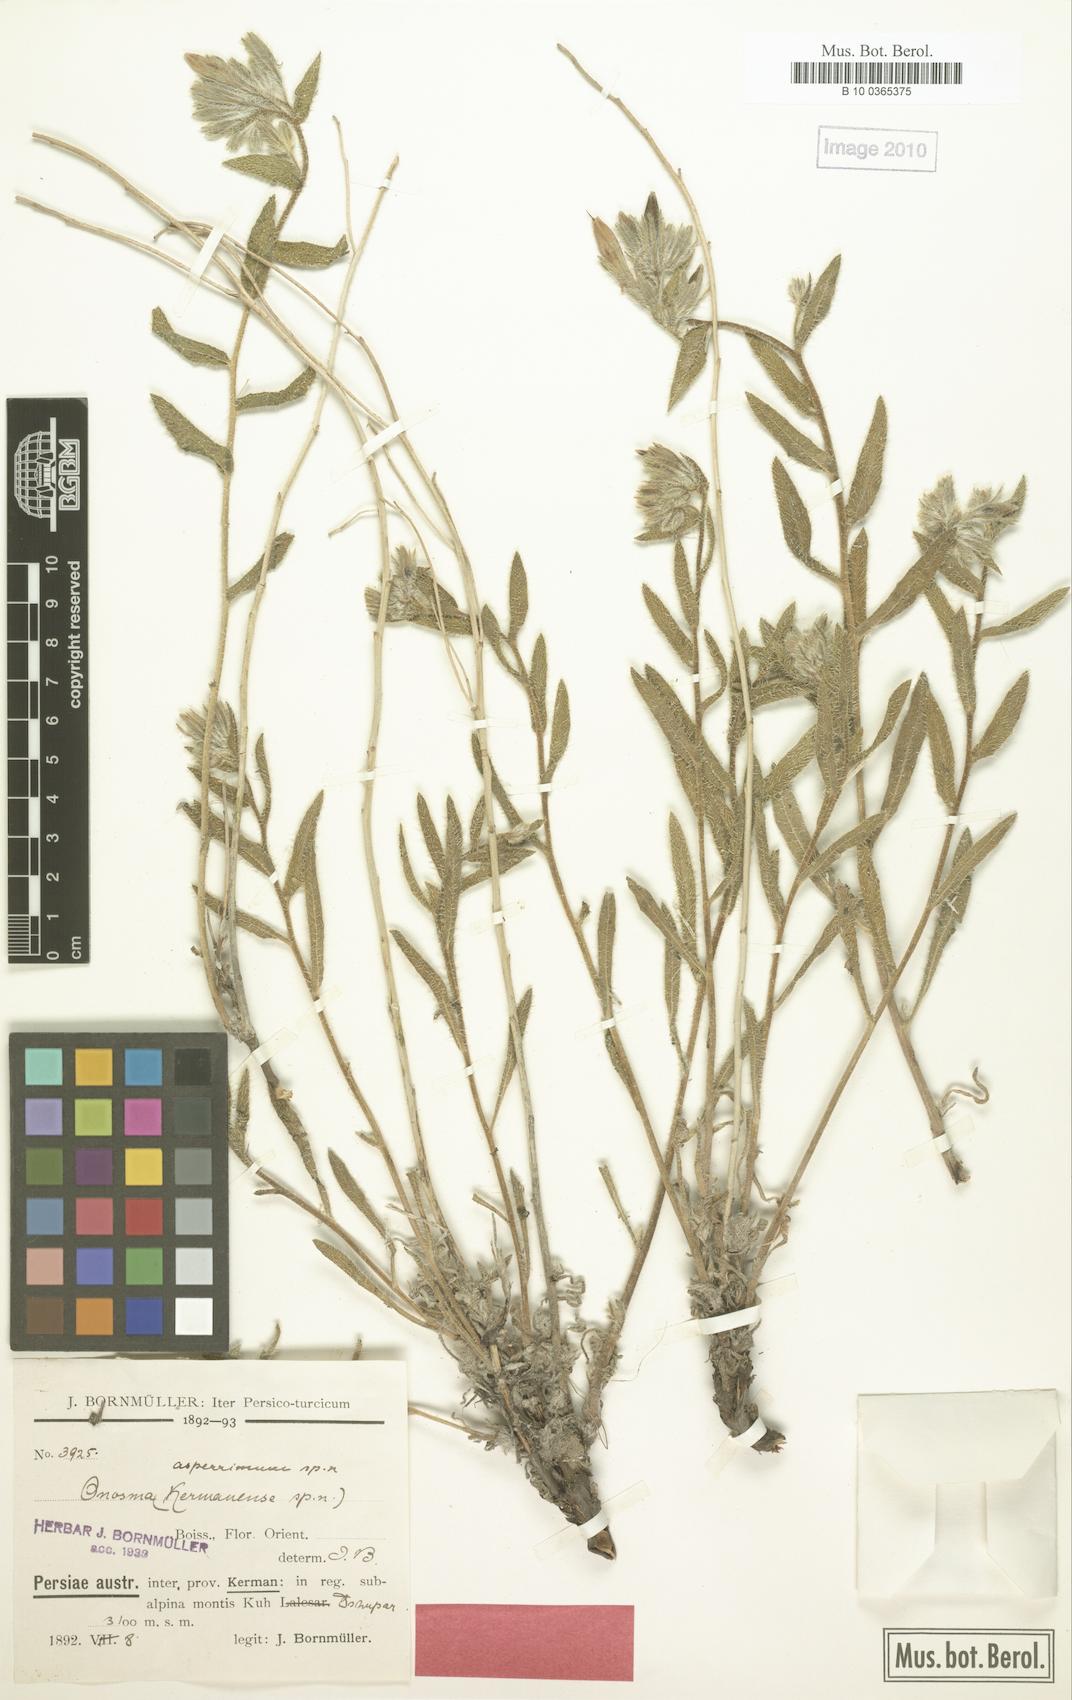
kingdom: Plantae
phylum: Tracheophyta
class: Magnoliopsida
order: Boraginales
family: Boraginaceae
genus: Onosma
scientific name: Onosma asperrima
